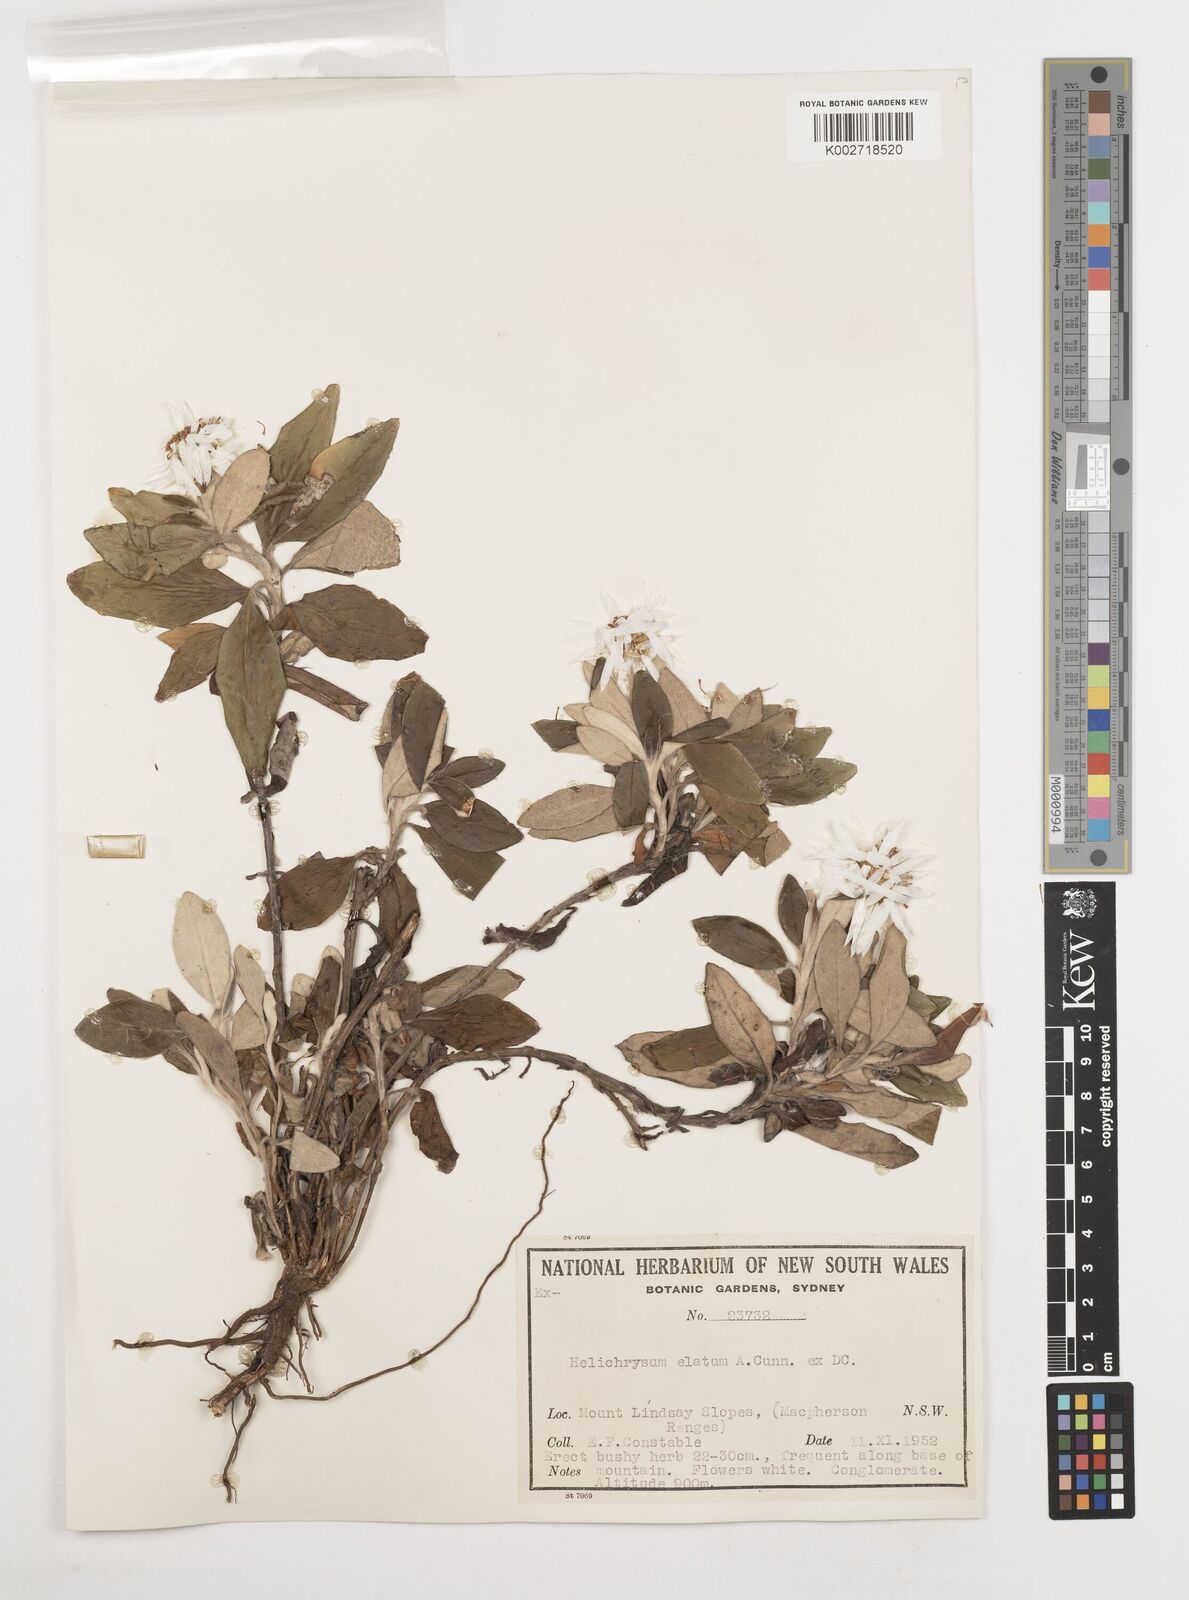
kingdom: Plantae
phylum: Tracheophyta
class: Magnoliopsida
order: Asterales
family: Asteraceae
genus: Leucozoma
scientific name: Leucozoma elatum
